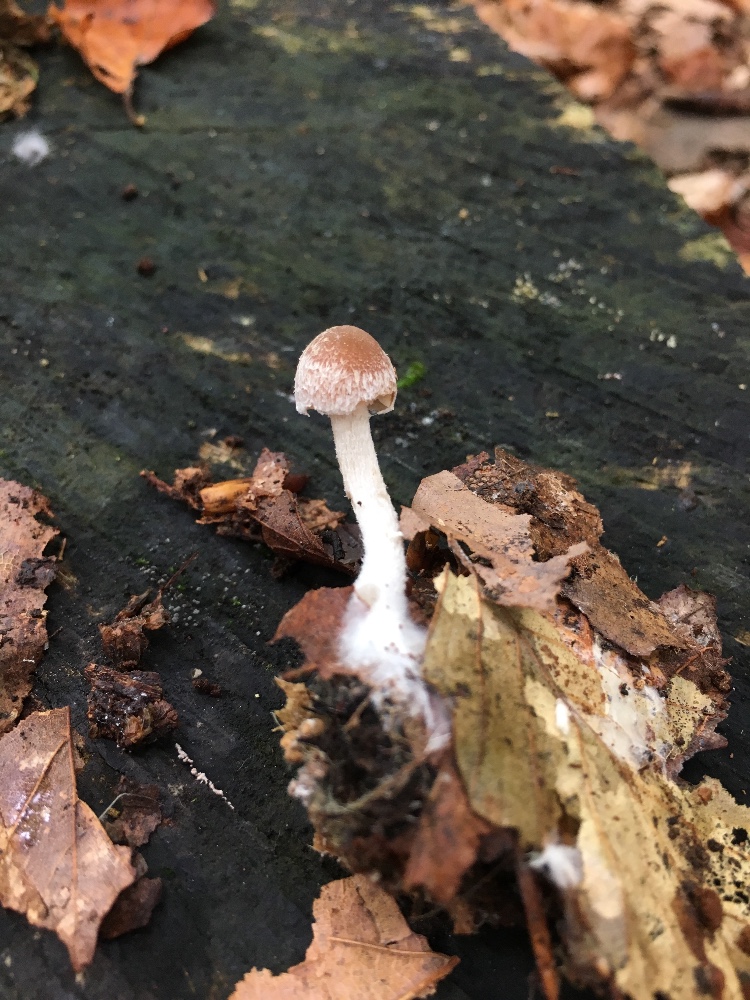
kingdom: Fungi
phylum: Basidiomycota
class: Agaricomycetes
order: Agaricales
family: Psathyrellaceae
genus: Psathyrella
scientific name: Psathyrella fibrillosa
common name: almindelig mørkhat
